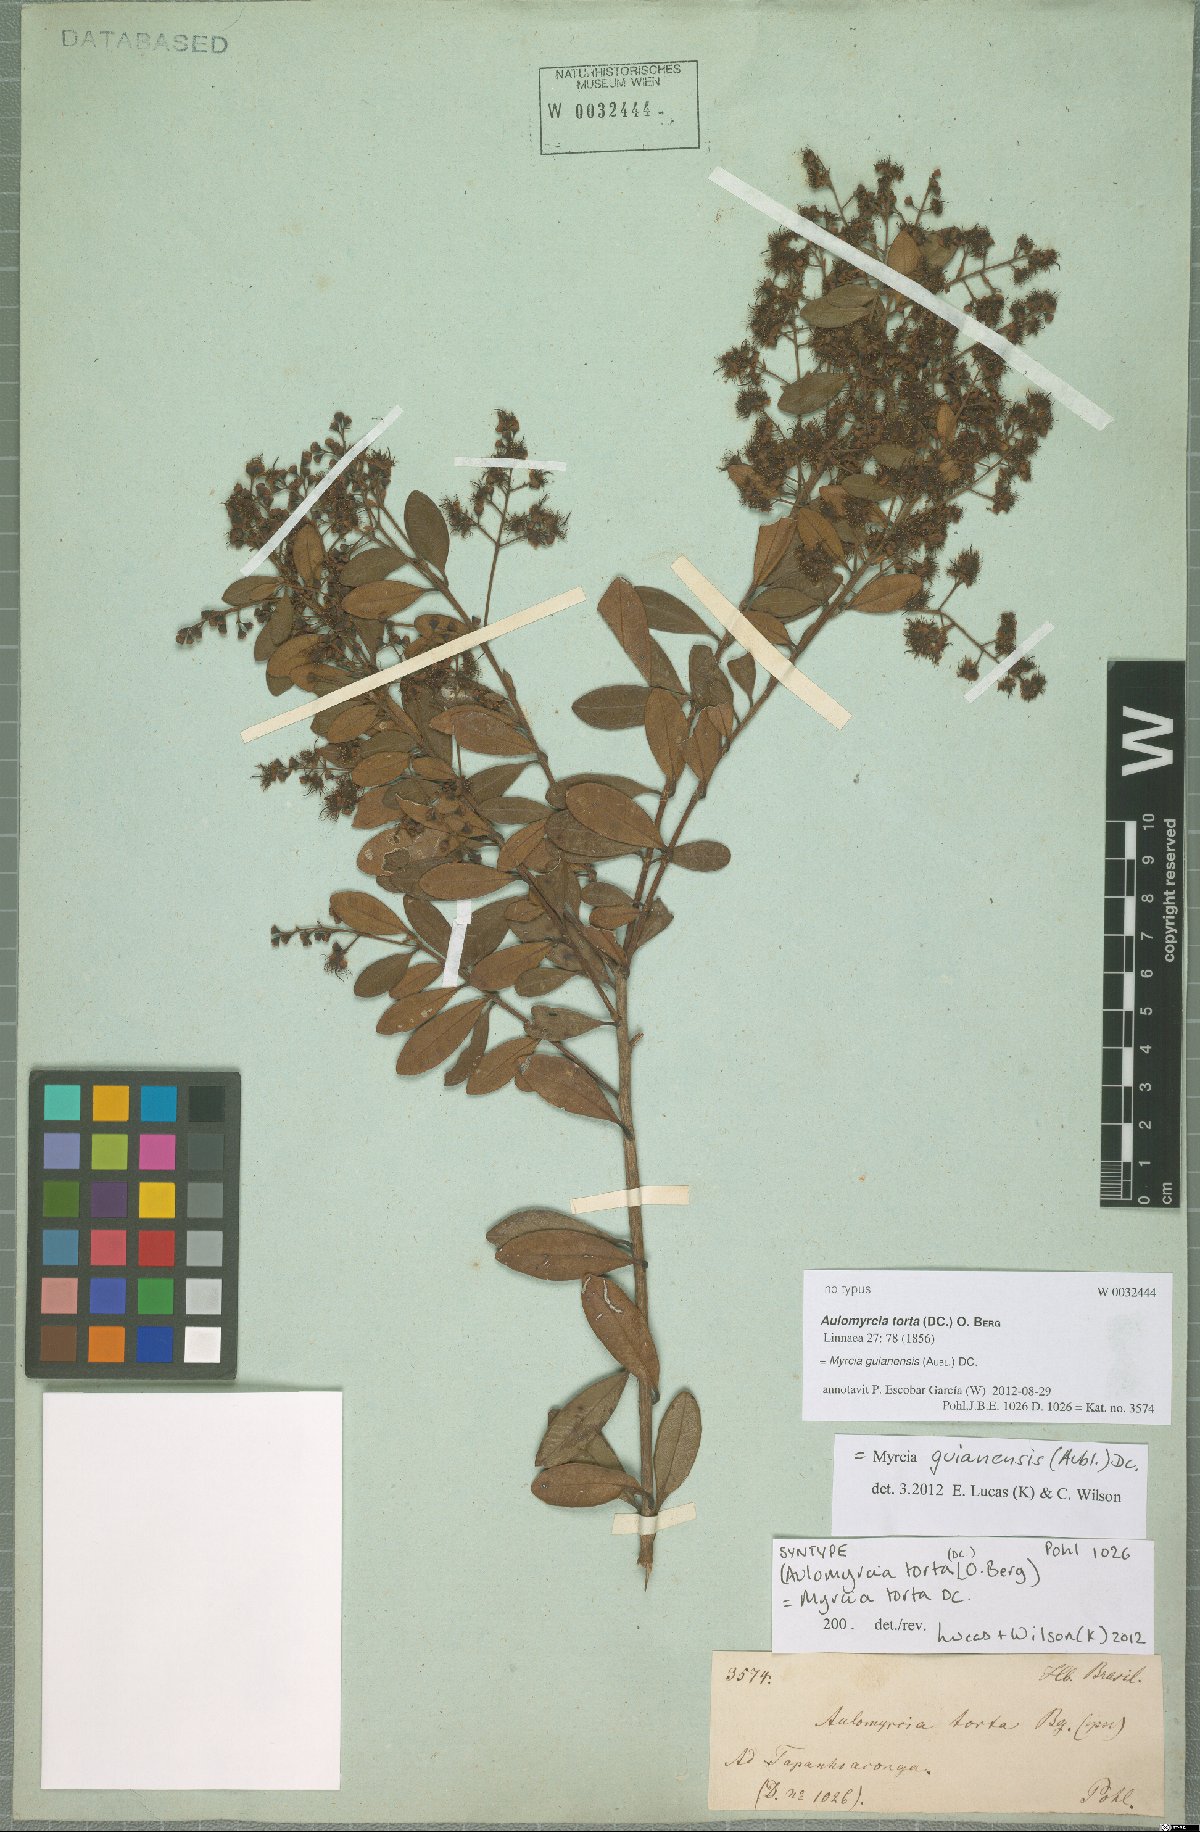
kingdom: Plantae
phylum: Tracheophyta
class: Magnoliopsida
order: Myrtales
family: Myrtaceae
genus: Myrcia
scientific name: Myrcia guianensis
